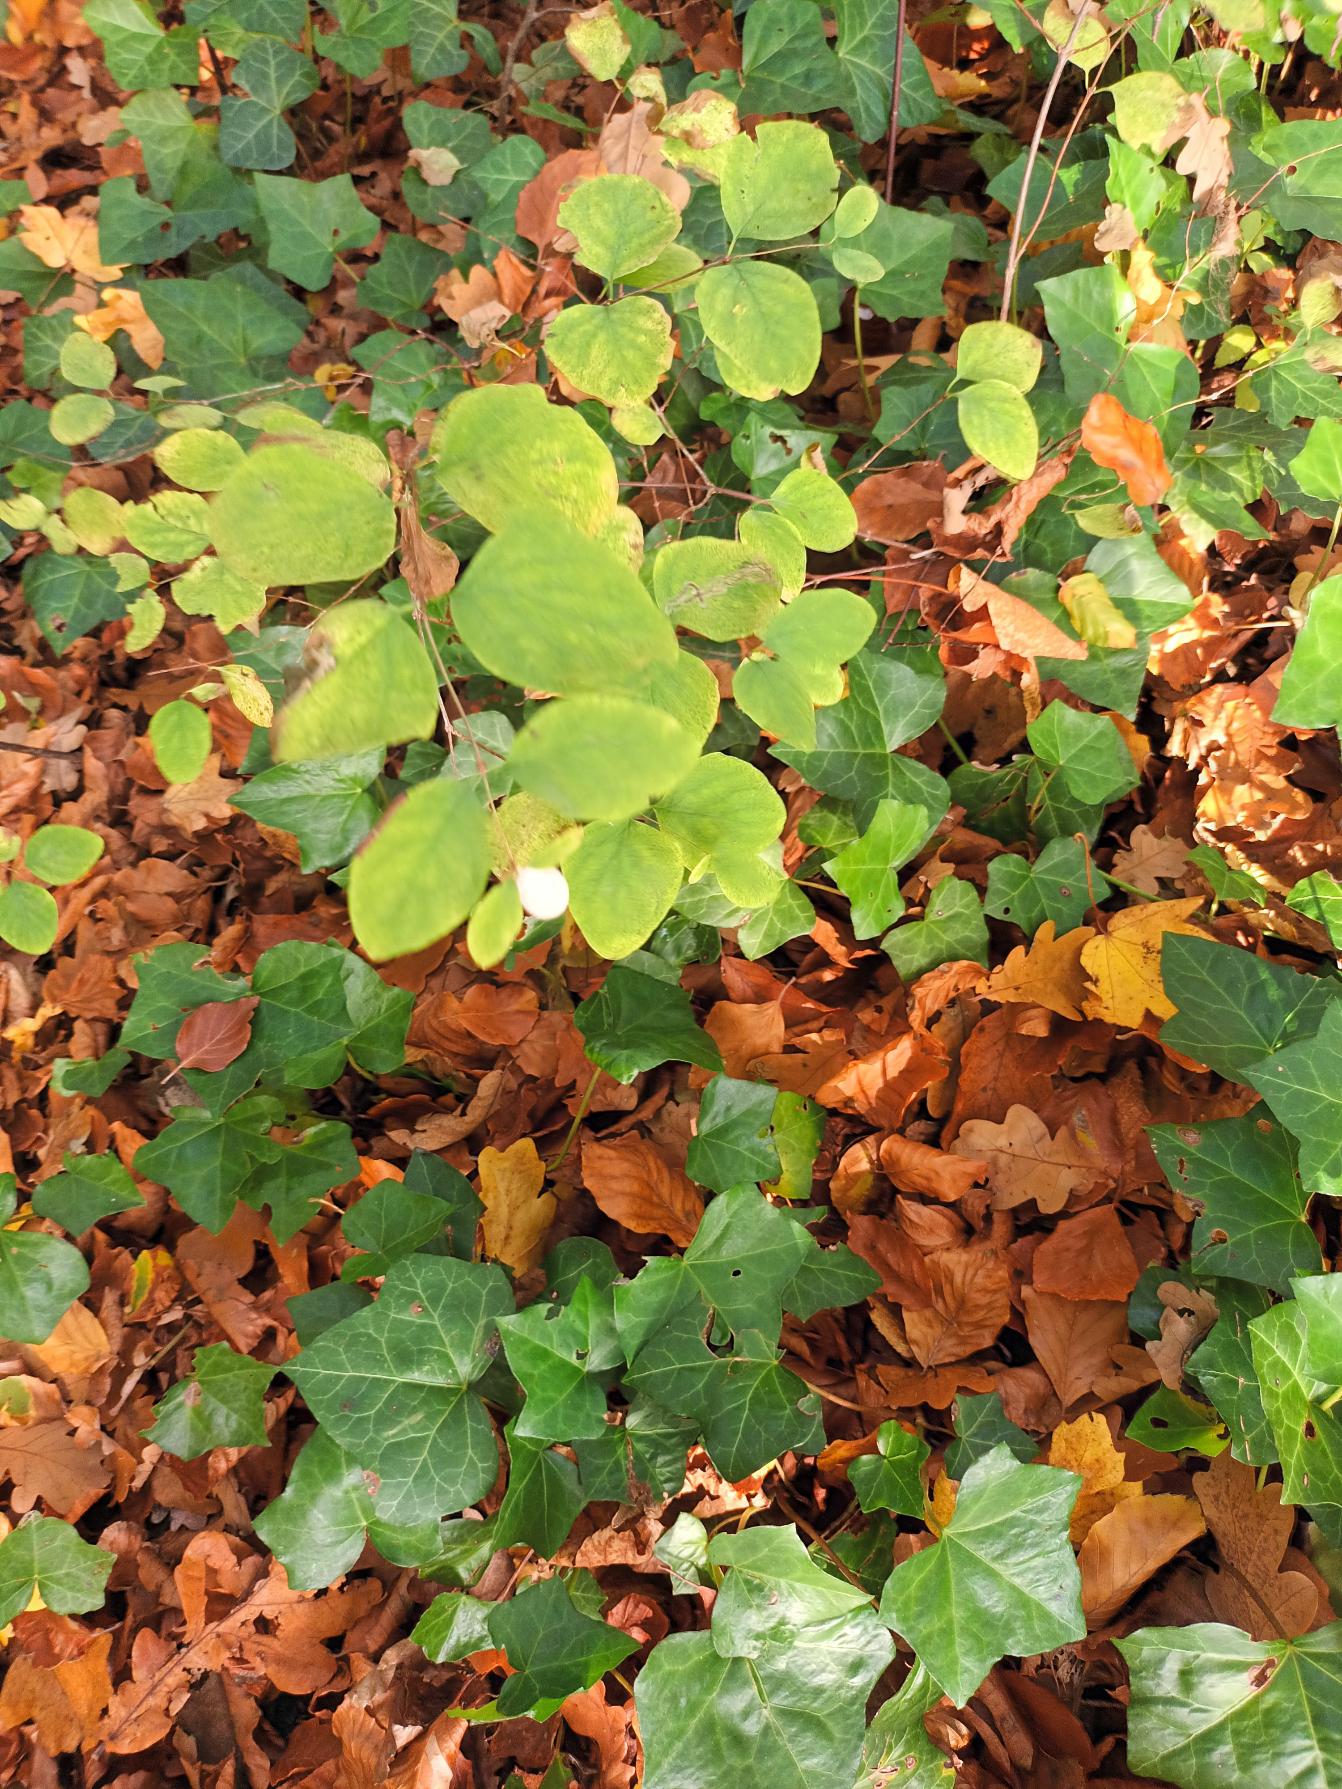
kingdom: Plantae
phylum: Tracheophyta
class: Magnoliopsida
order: Dipsacales
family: Caprifoliaceae
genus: Symphoricarpos
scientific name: Symphoricarpos albus
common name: Almindelig snebær
